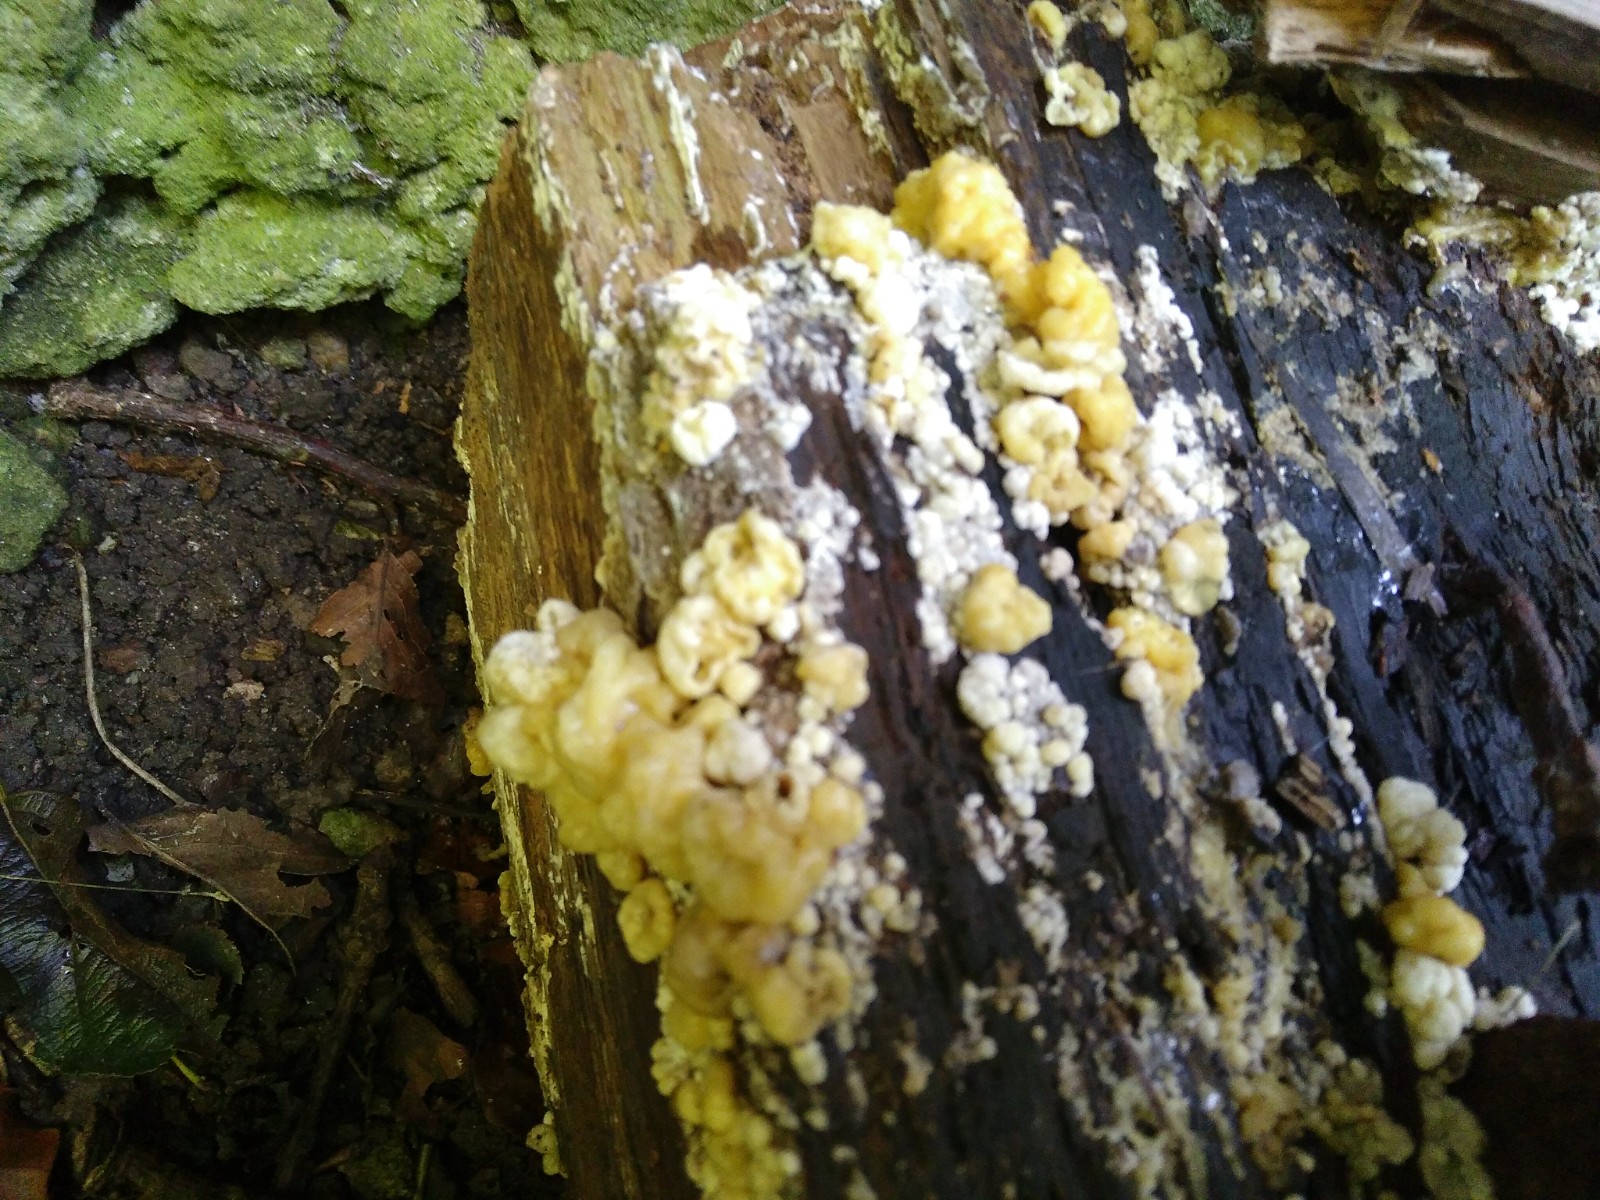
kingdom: Fungi
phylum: Ascomycota
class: Sordariomycetes
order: Xylariales
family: Hypoxylaceae
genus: Nodulisporium
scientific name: Nodulisporium cecidiogenes
